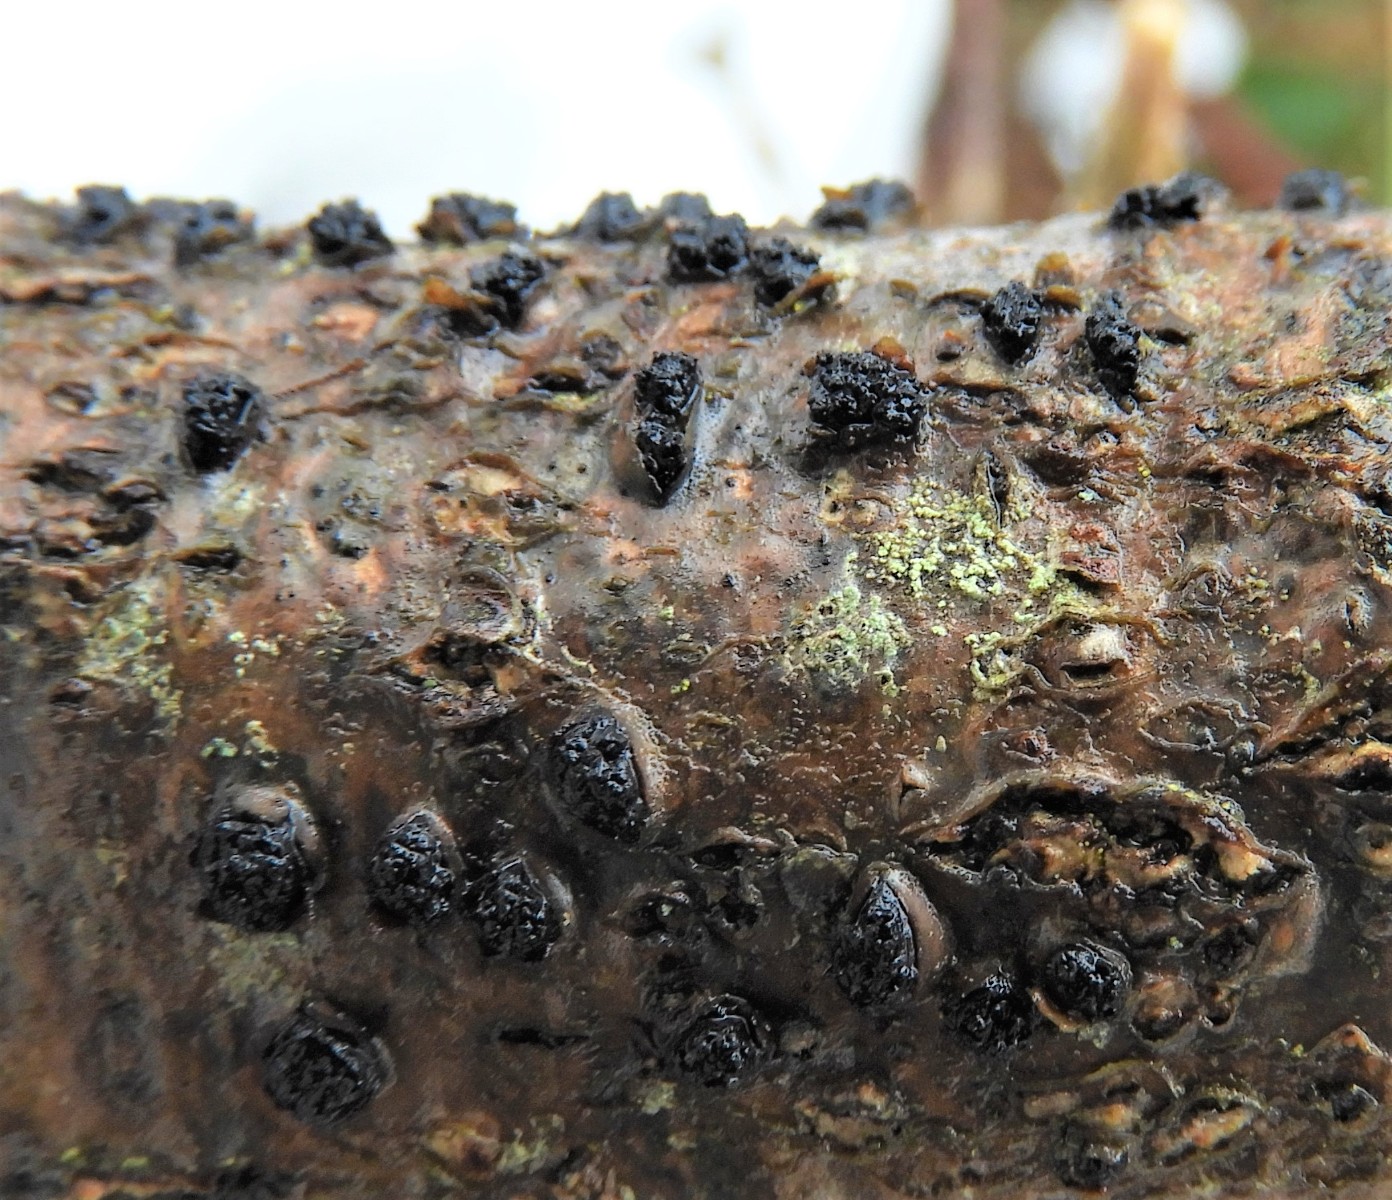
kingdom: Fungi
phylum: Ascomycota
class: Sordariomycetes
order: Xylariales
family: Diatrypaceae
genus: Diatrypella
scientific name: Diatrypella quercina
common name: ege-kulskorpe
